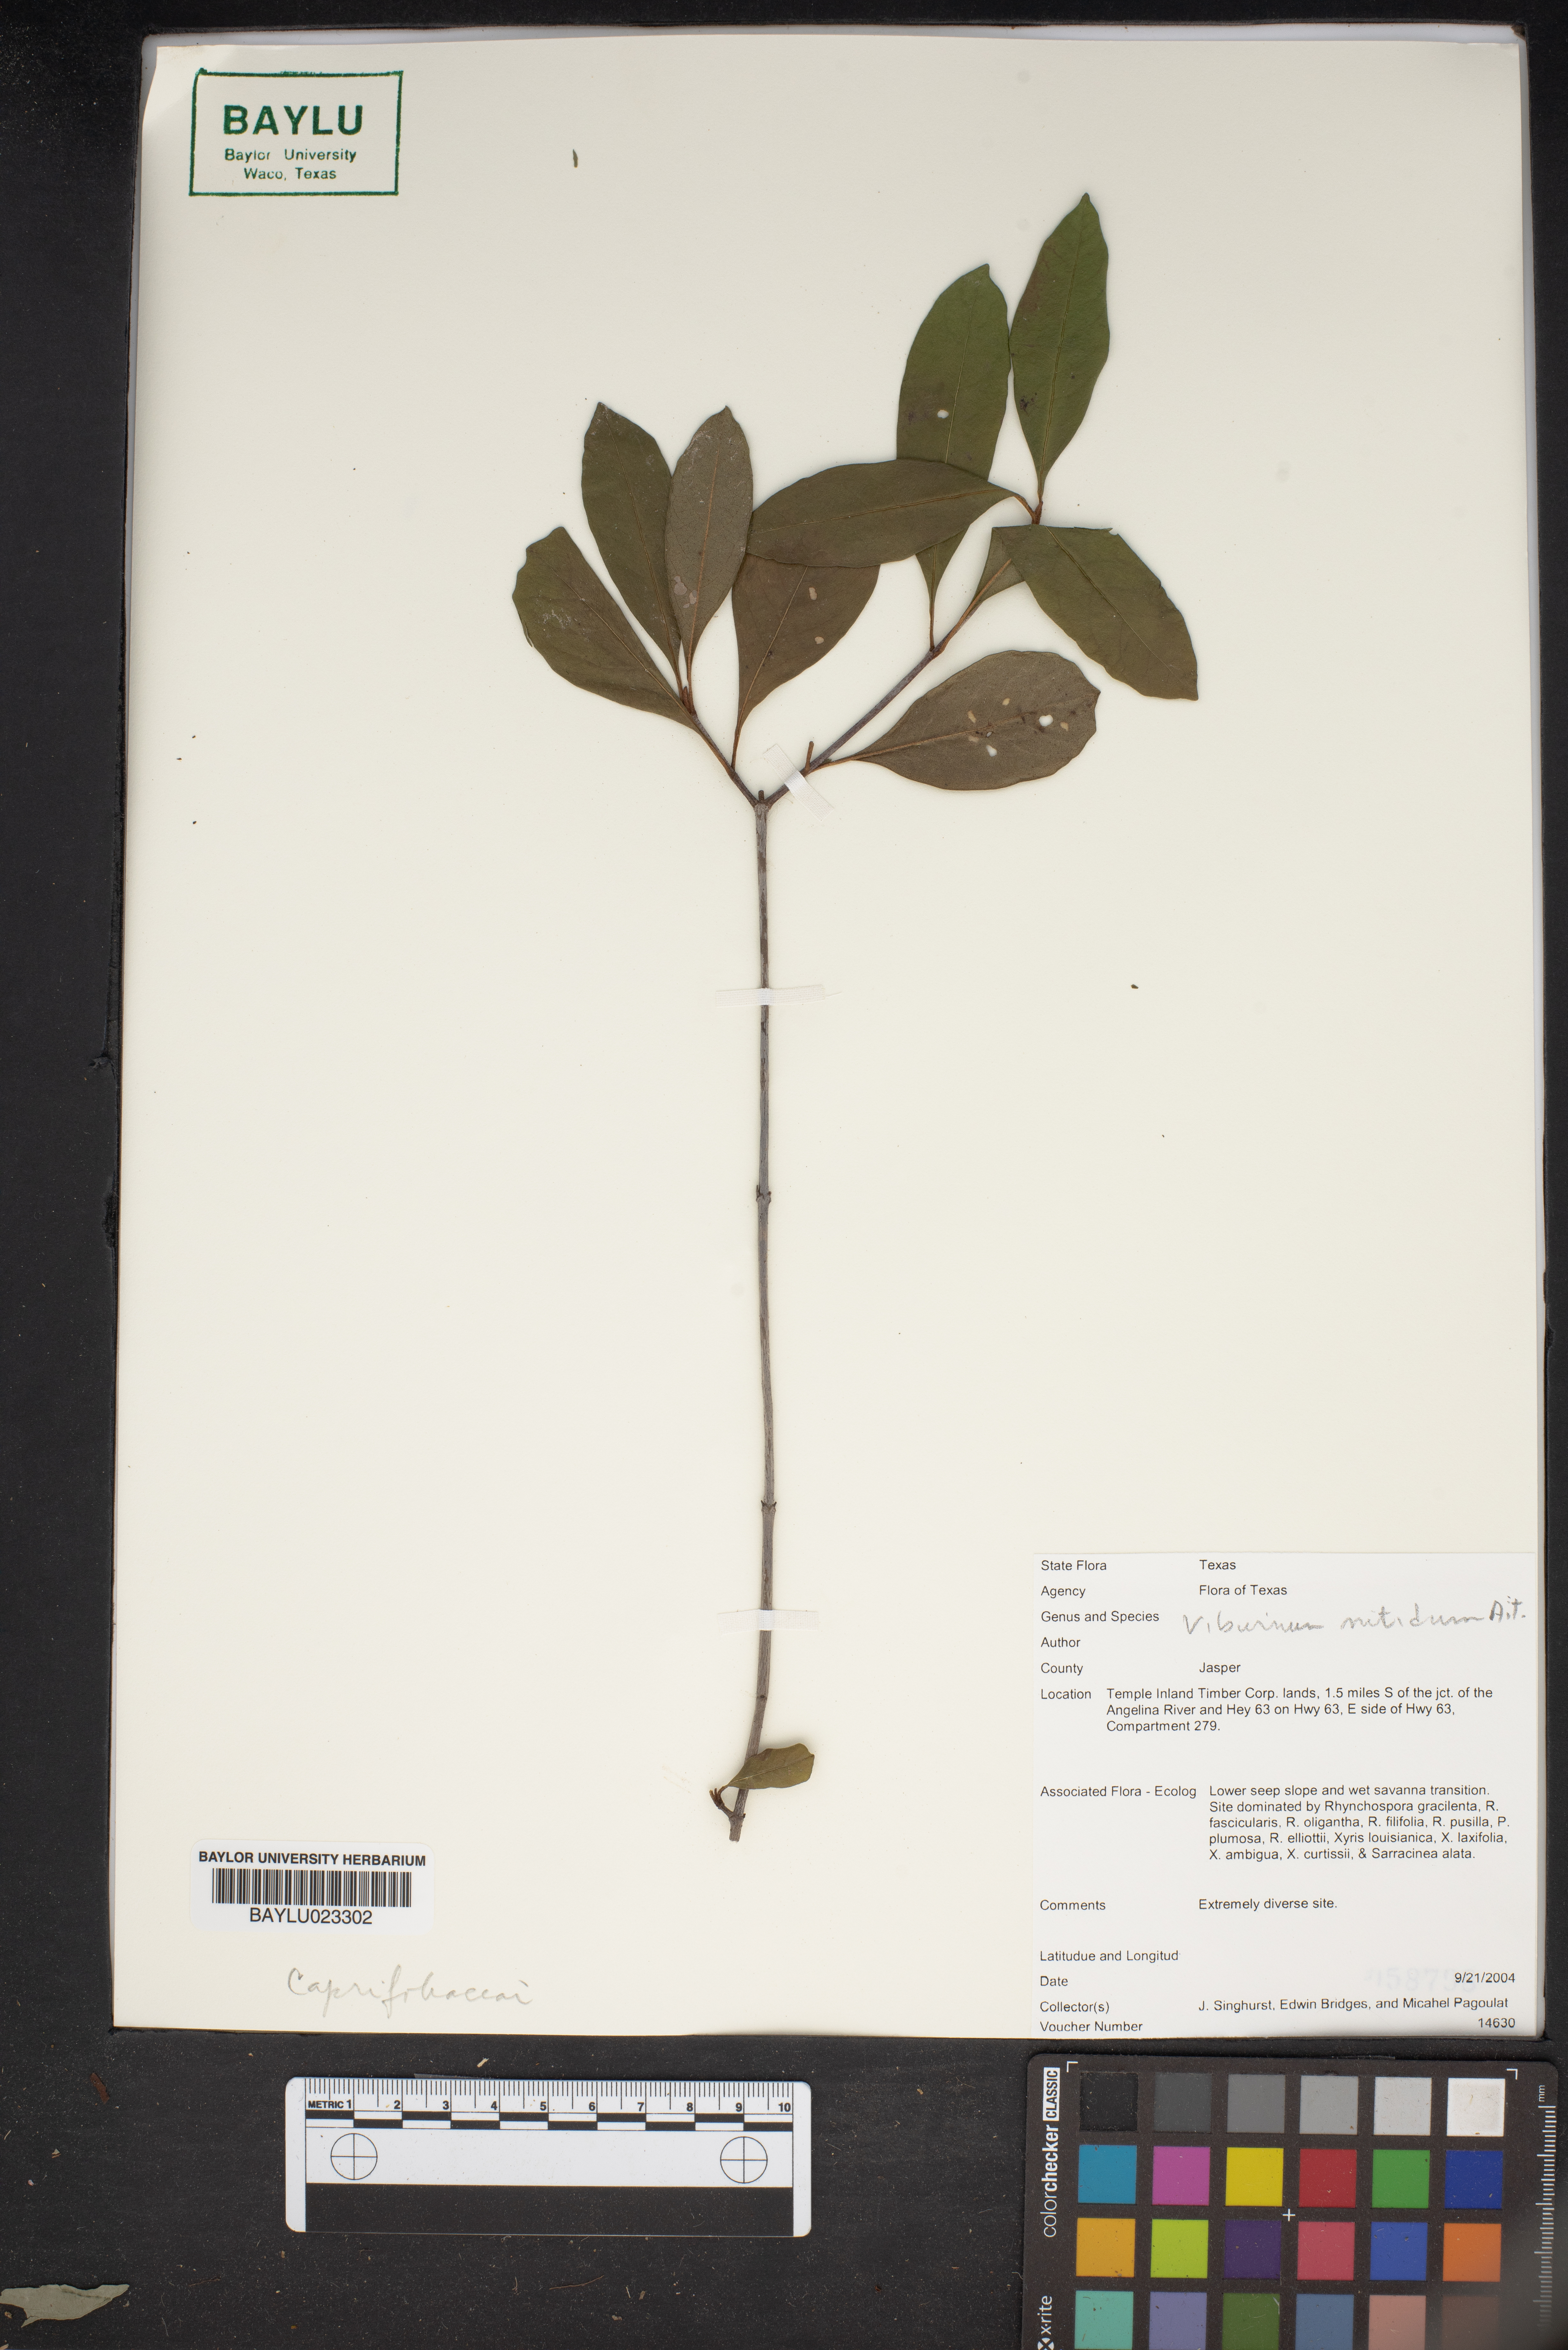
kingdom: Plantae
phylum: Tracheophyta
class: Magnoliopsida
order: Dipsacales
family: Viburnaceae
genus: Viburnum
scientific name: Viburnum cassinoides
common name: Swamp haw
